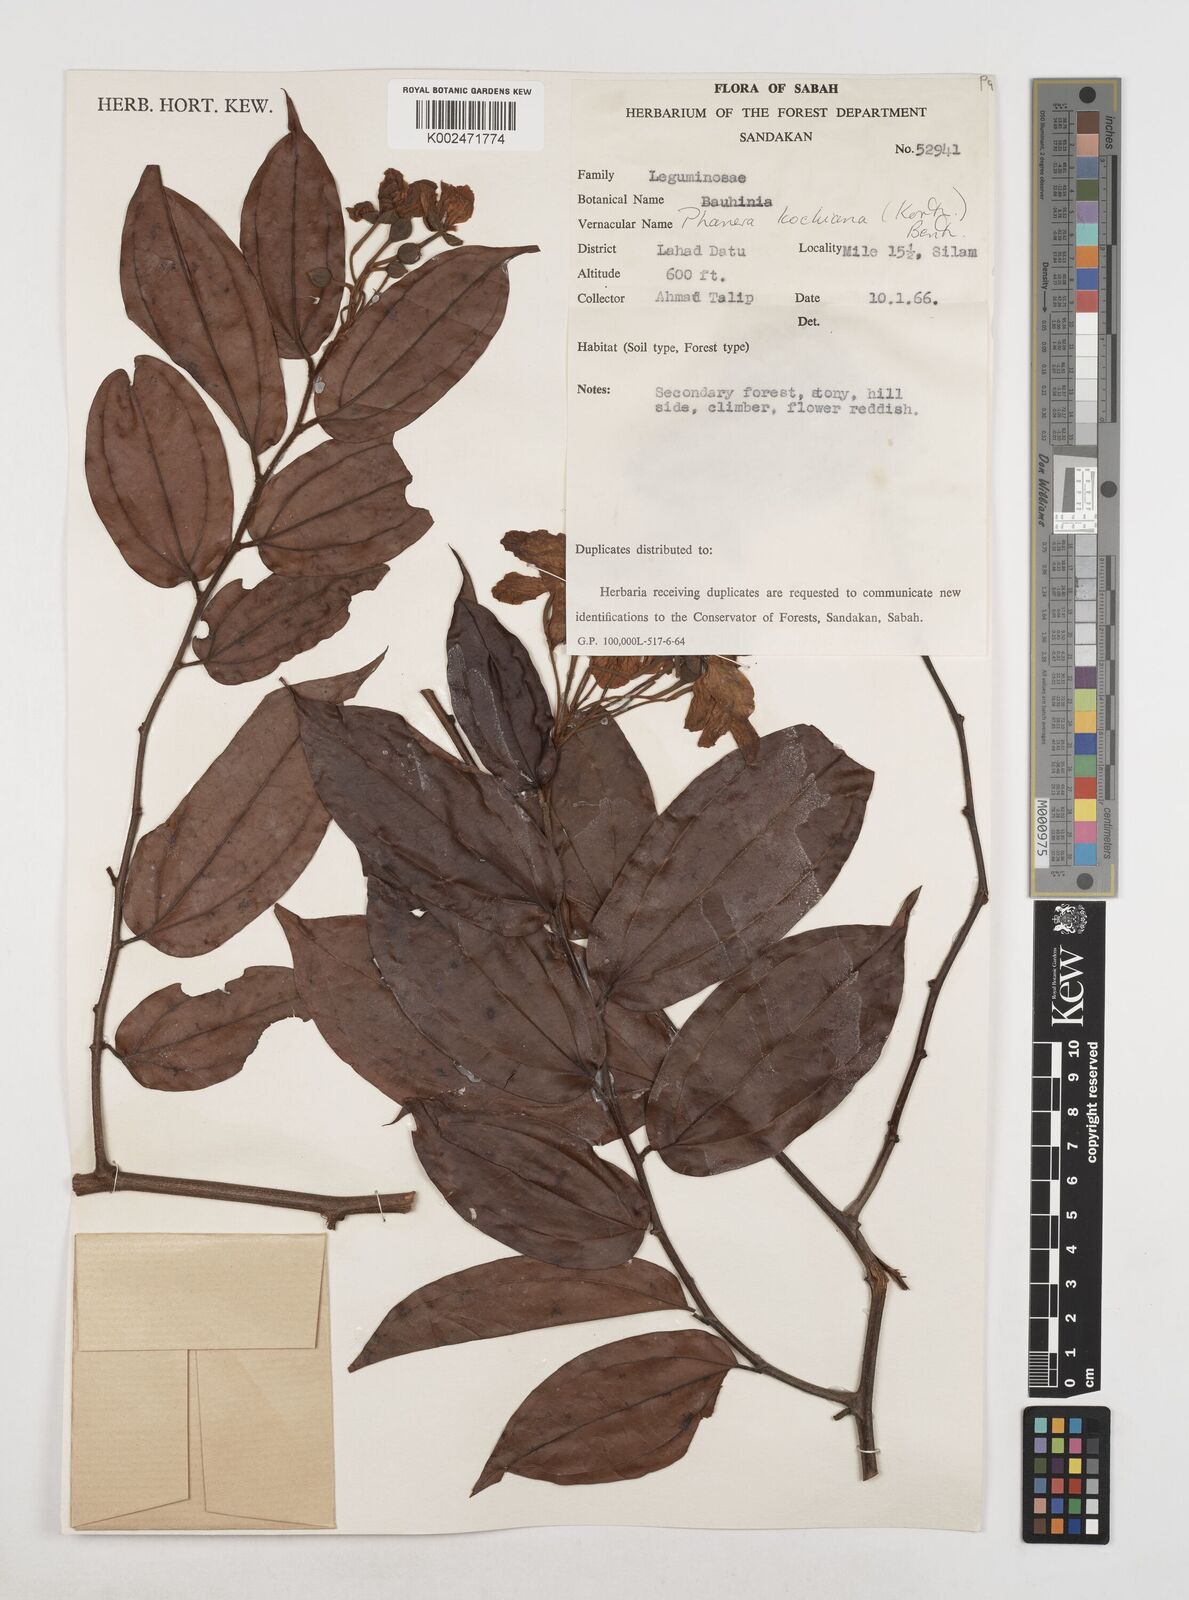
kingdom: Plantae
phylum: Tracheophyta
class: Magnoliopsida
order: Fabales
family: Fabaceae
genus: Phanera
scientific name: Phanera kockiana
